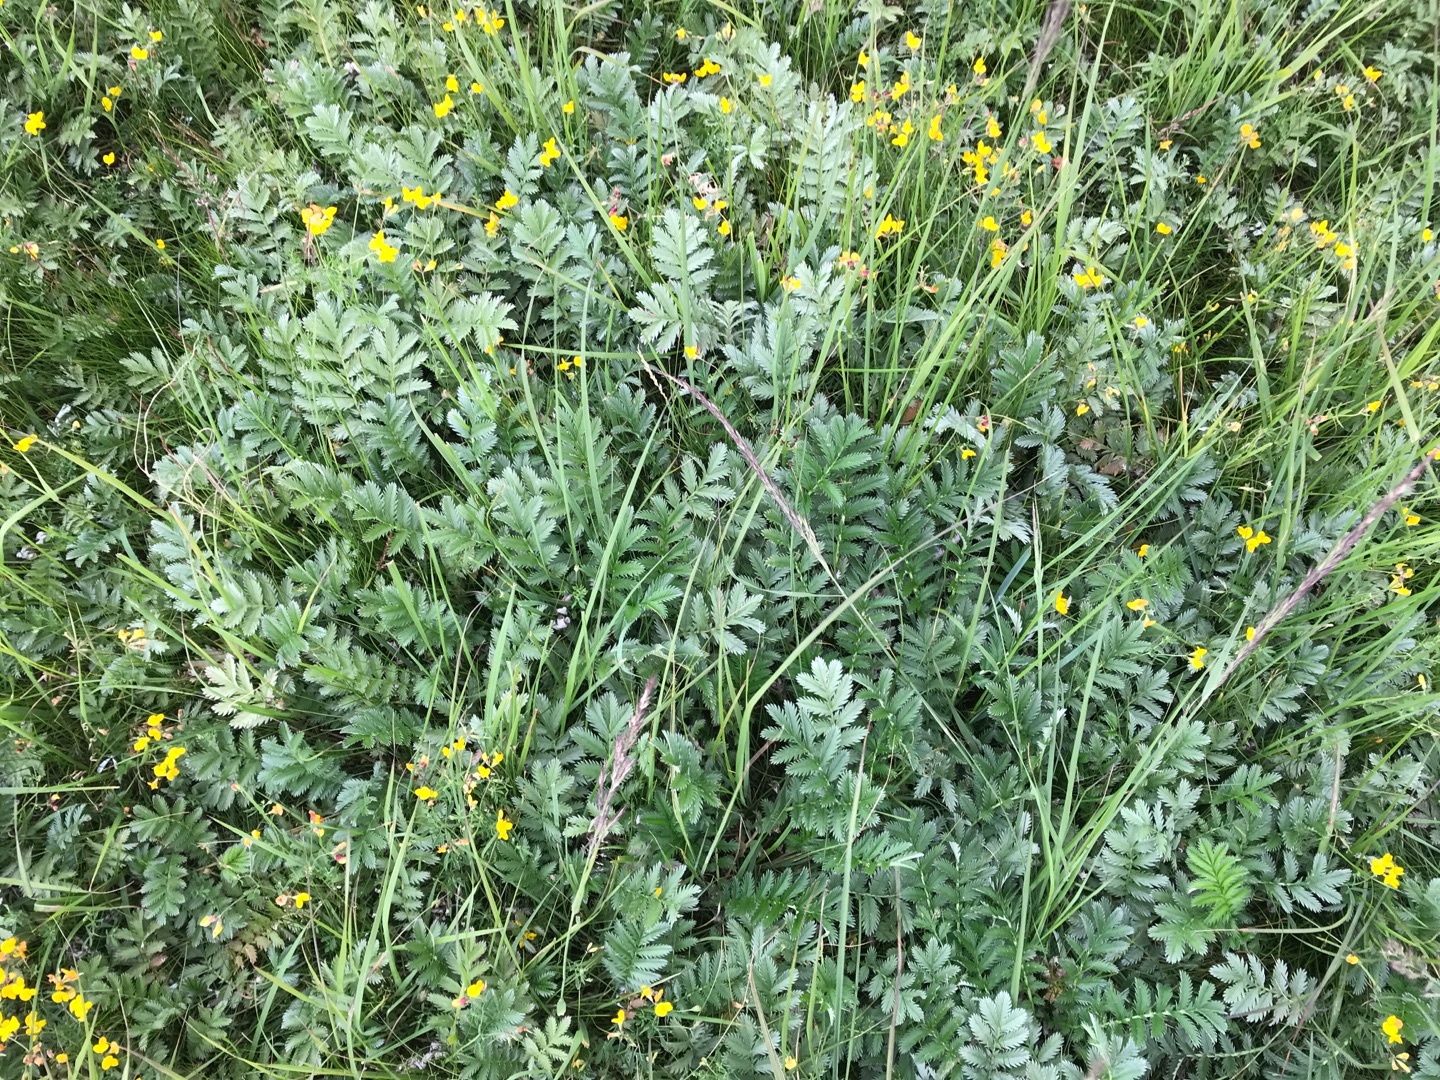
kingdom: Plantae
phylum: Tracheophyta
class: Magnoliopsida
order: Rosales
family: Rosaceae
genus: Argentina
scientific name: Argentina anserina
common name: Gåsepotentil
